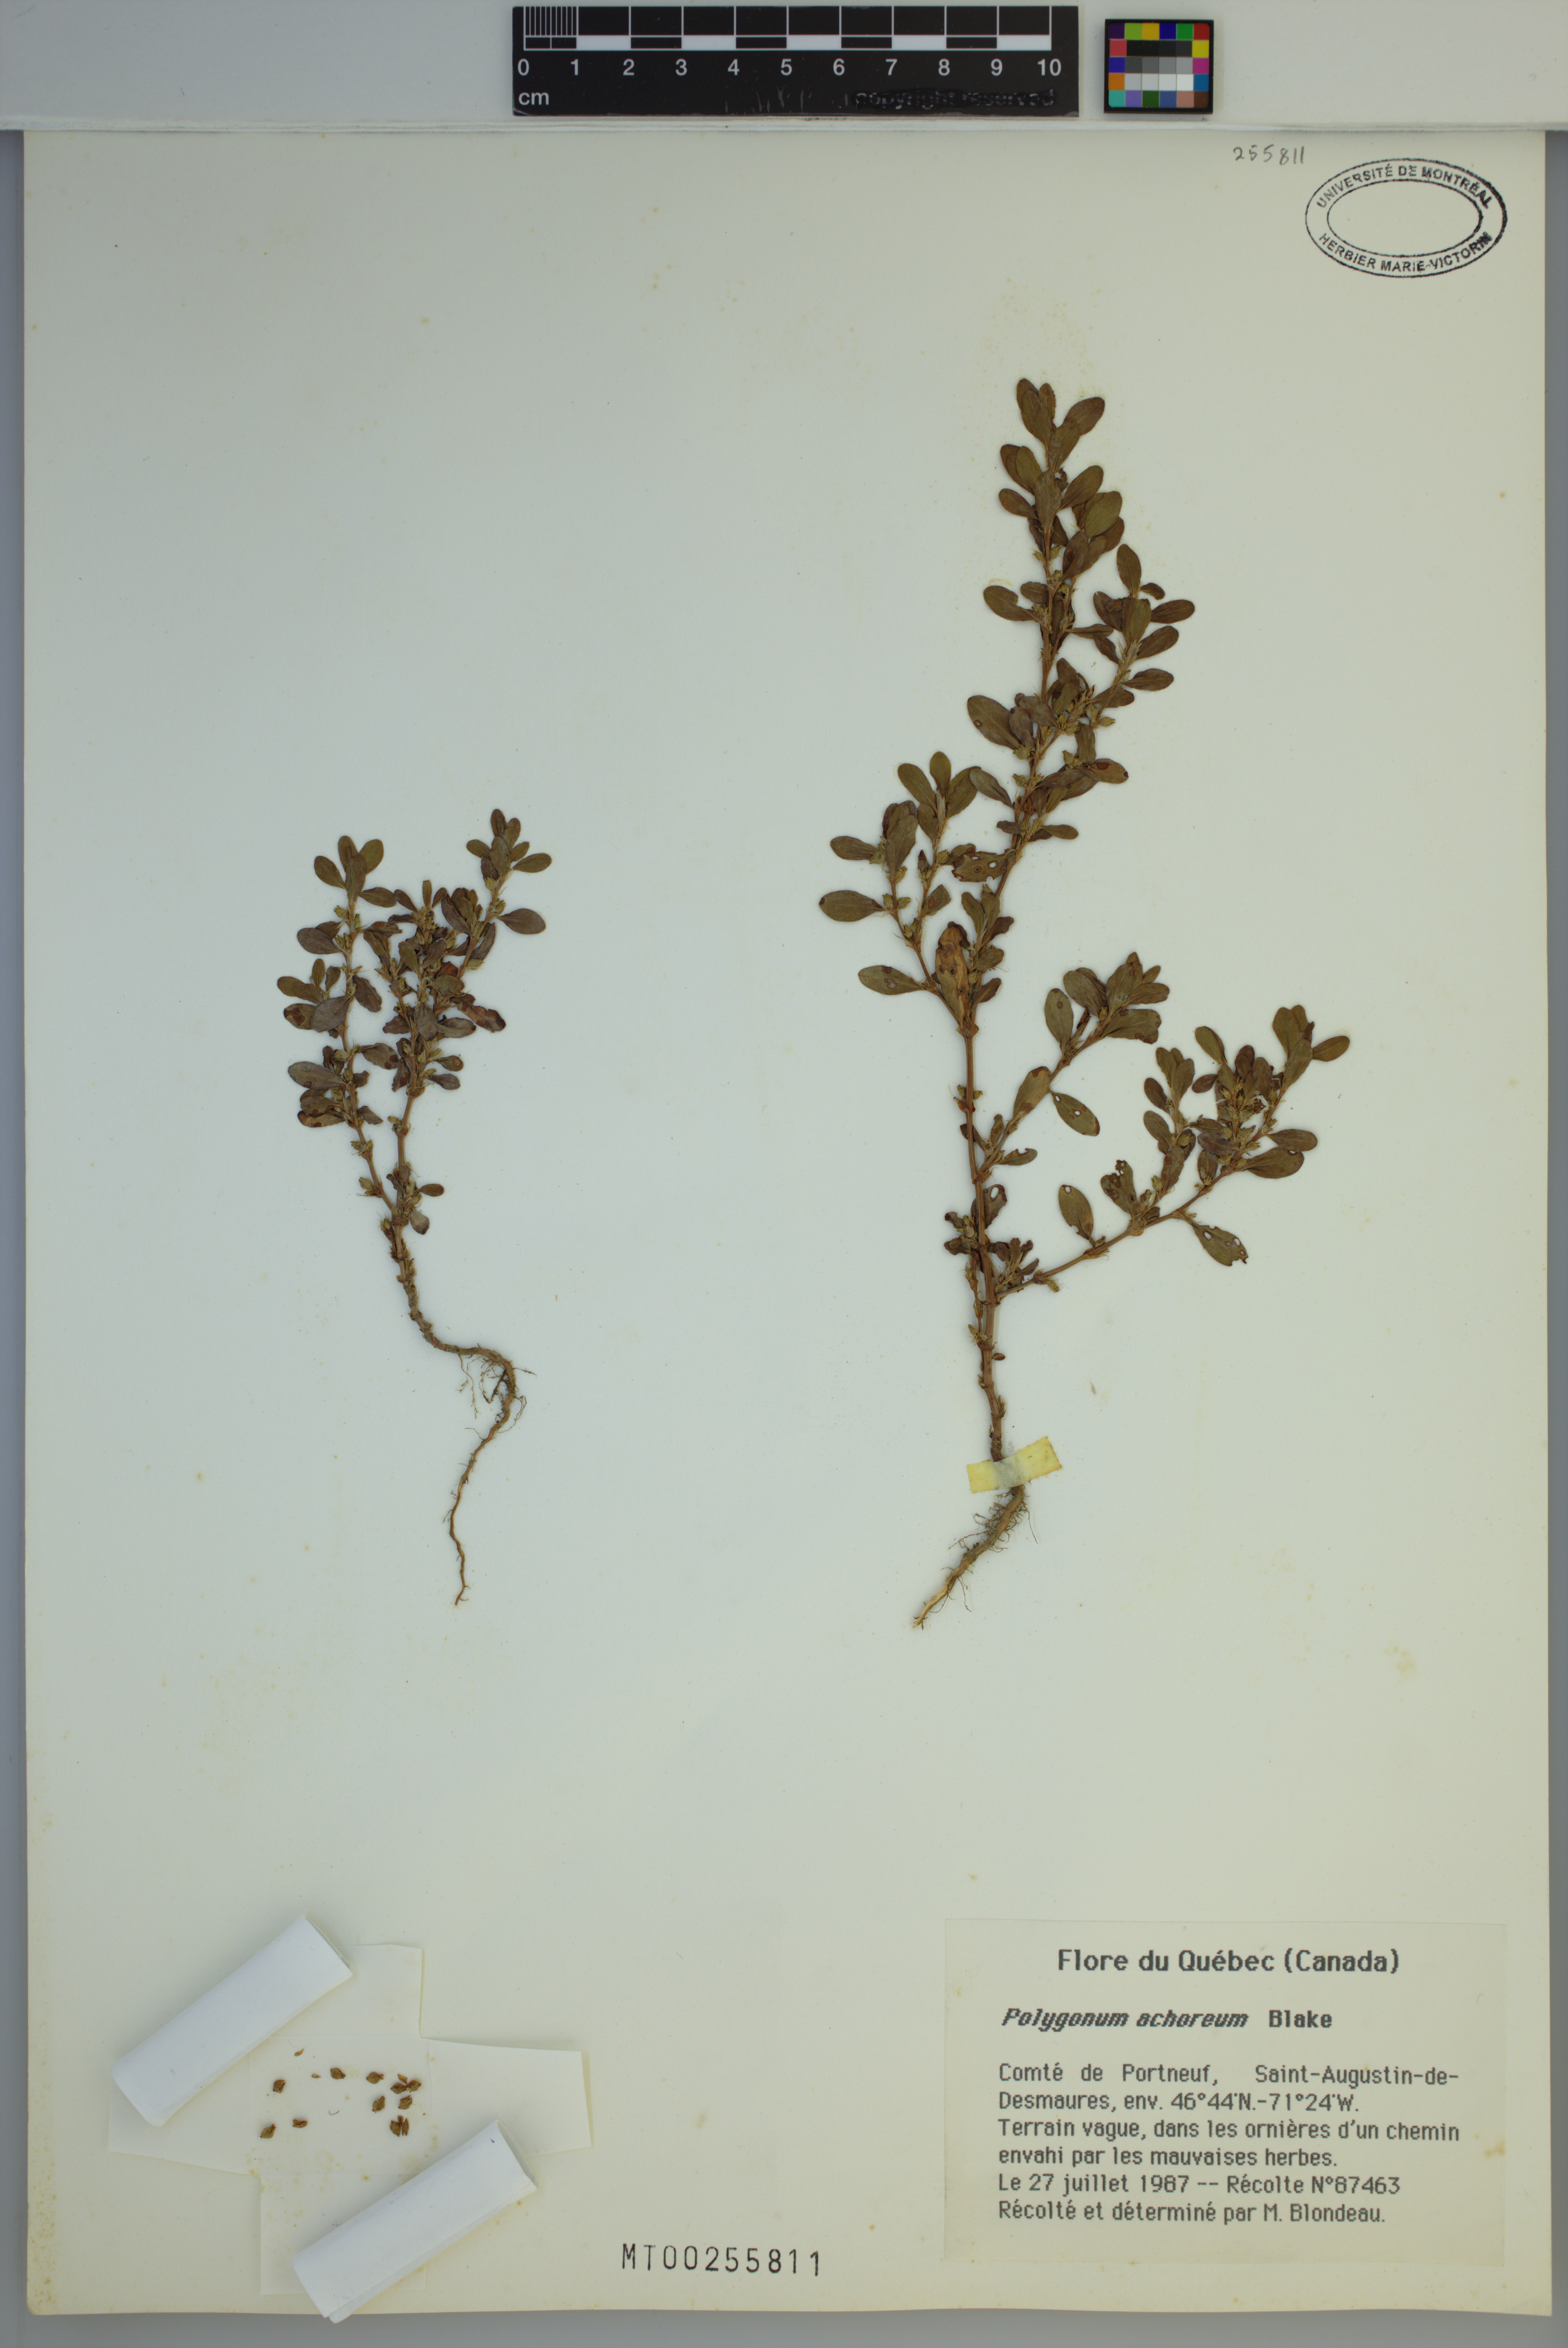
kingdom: Plantae
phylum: Tracheophyta
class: Magnoliopsida
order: Caryophyllales
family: Polygonaceae
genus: Polygonum
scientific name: Polygonum achoreum
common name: Striate knotweed
